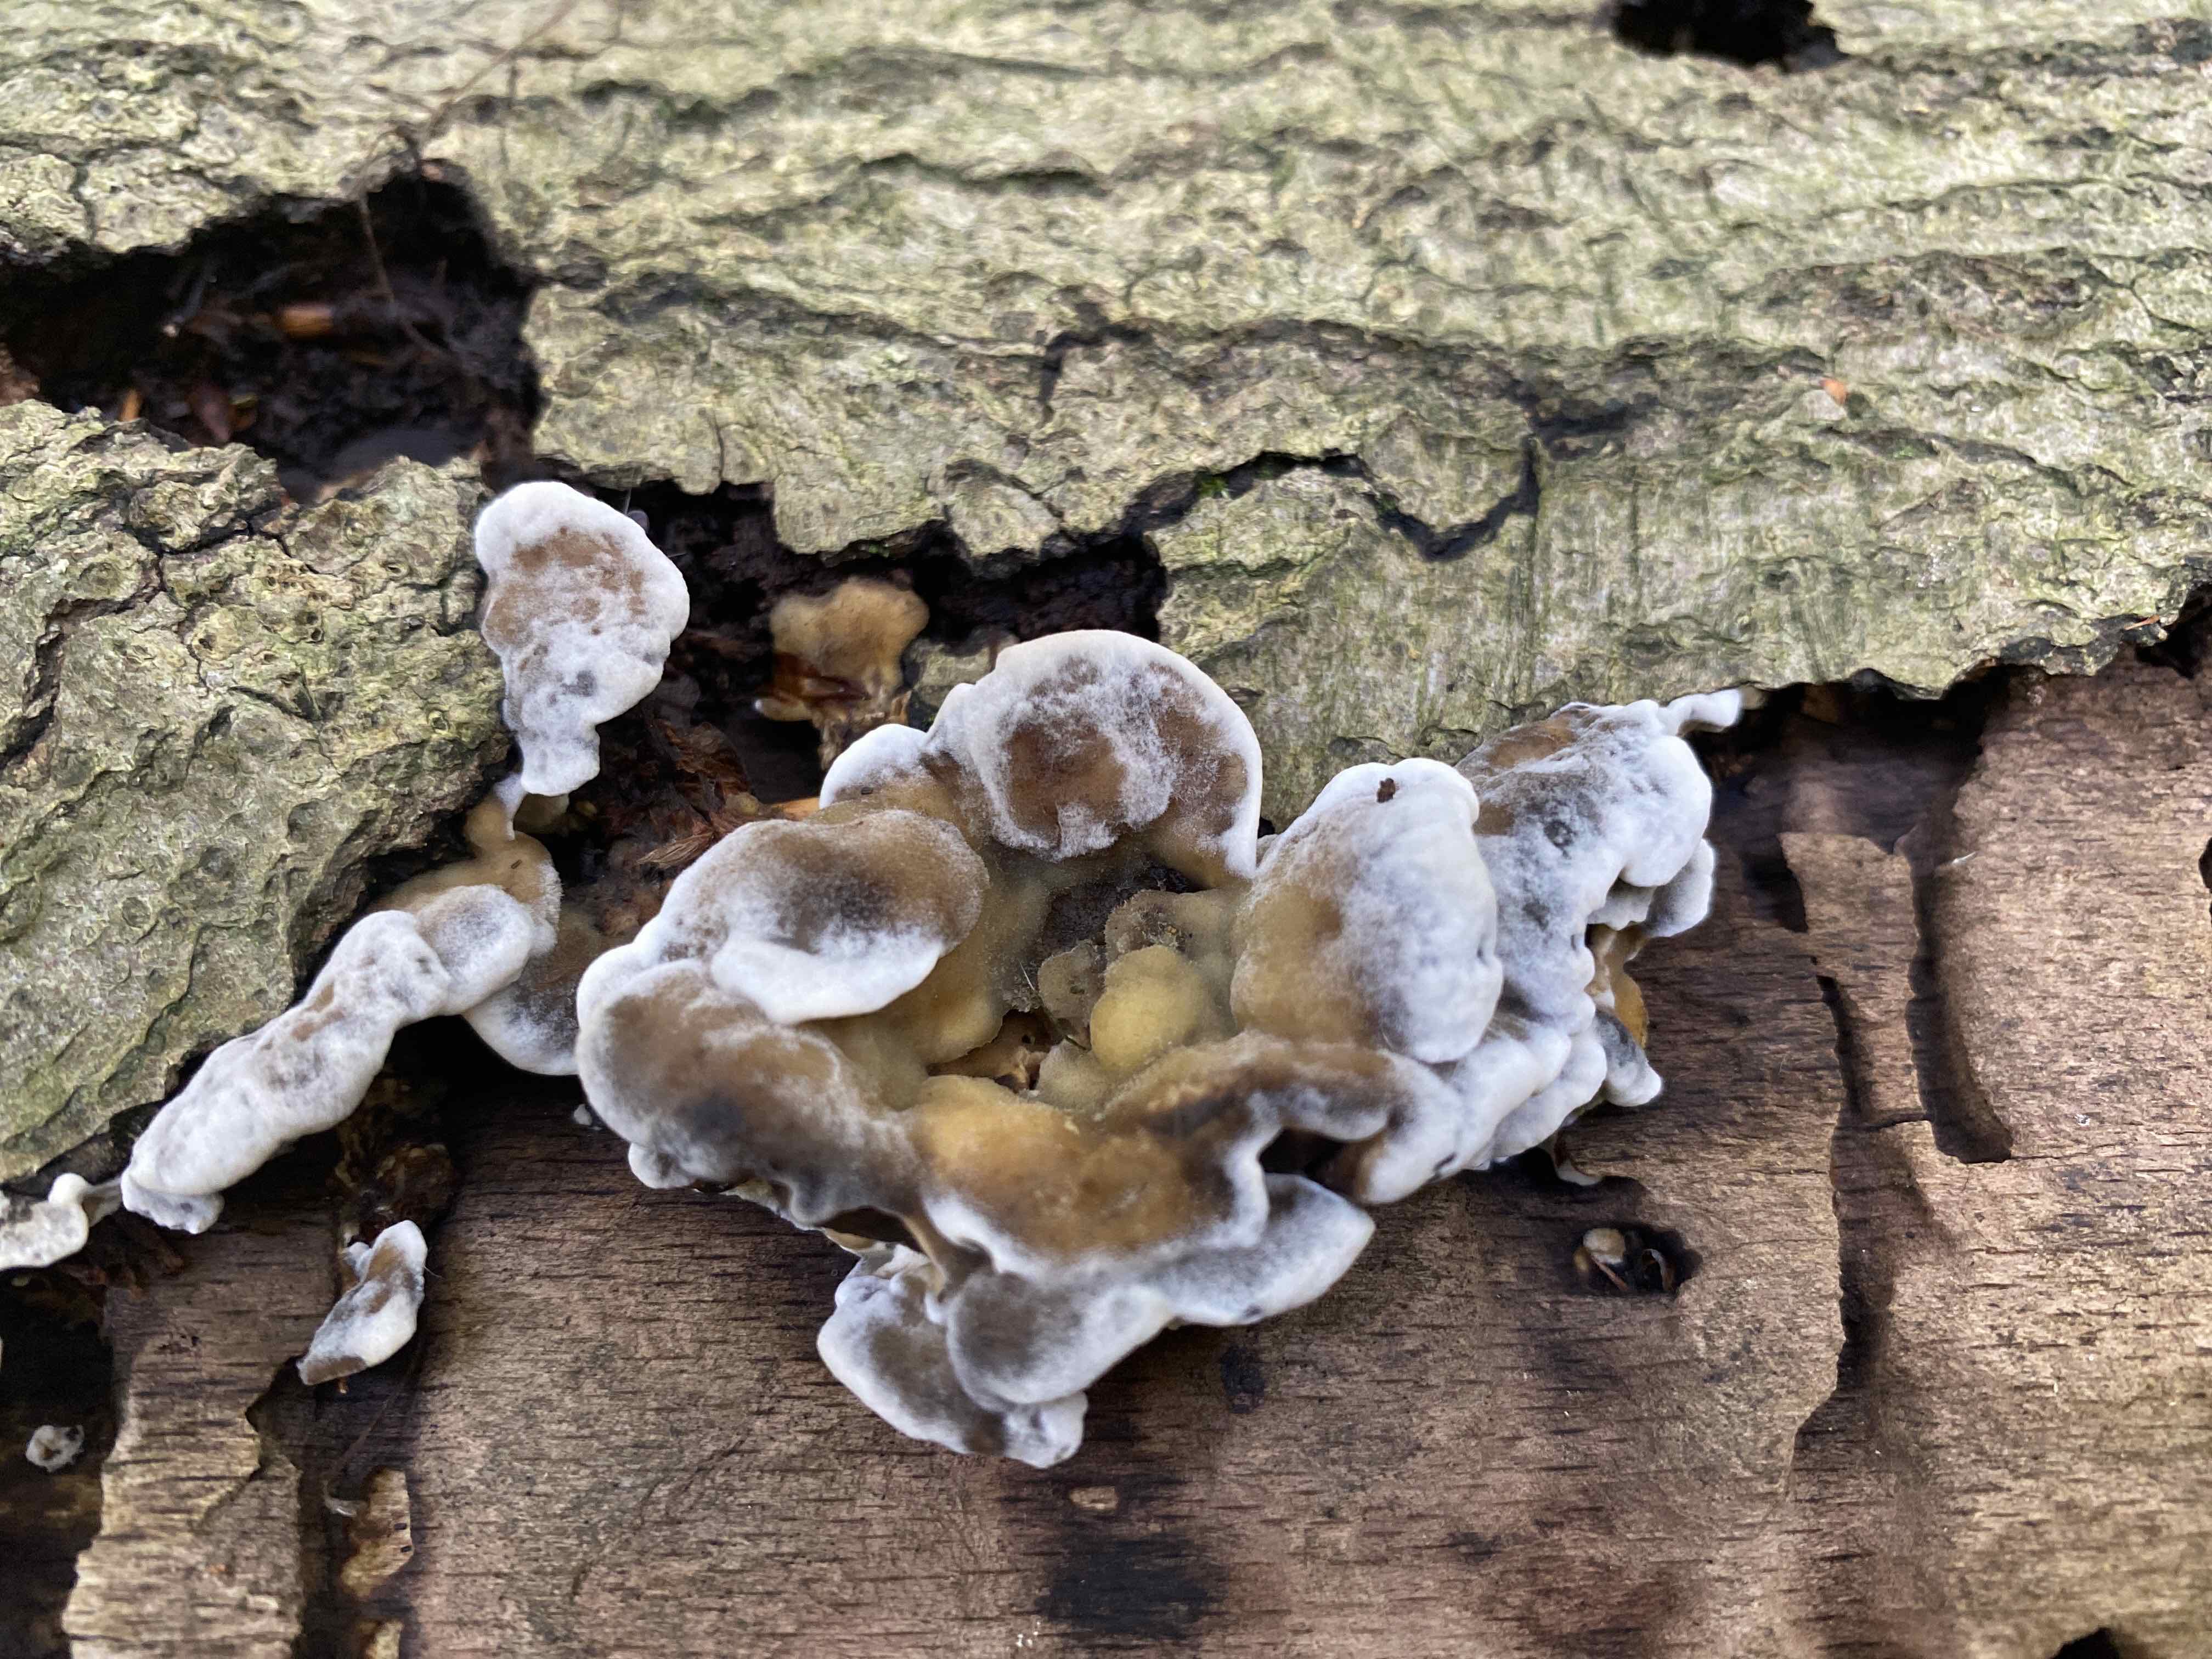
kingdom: Fungi
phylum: Basidiomycota
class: Agaricomycetes
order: Polyporales
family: Phanerochaetaceae
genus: Bjerkandera
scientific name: Bjerkandera adusta
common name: sveden sodporesvamp
